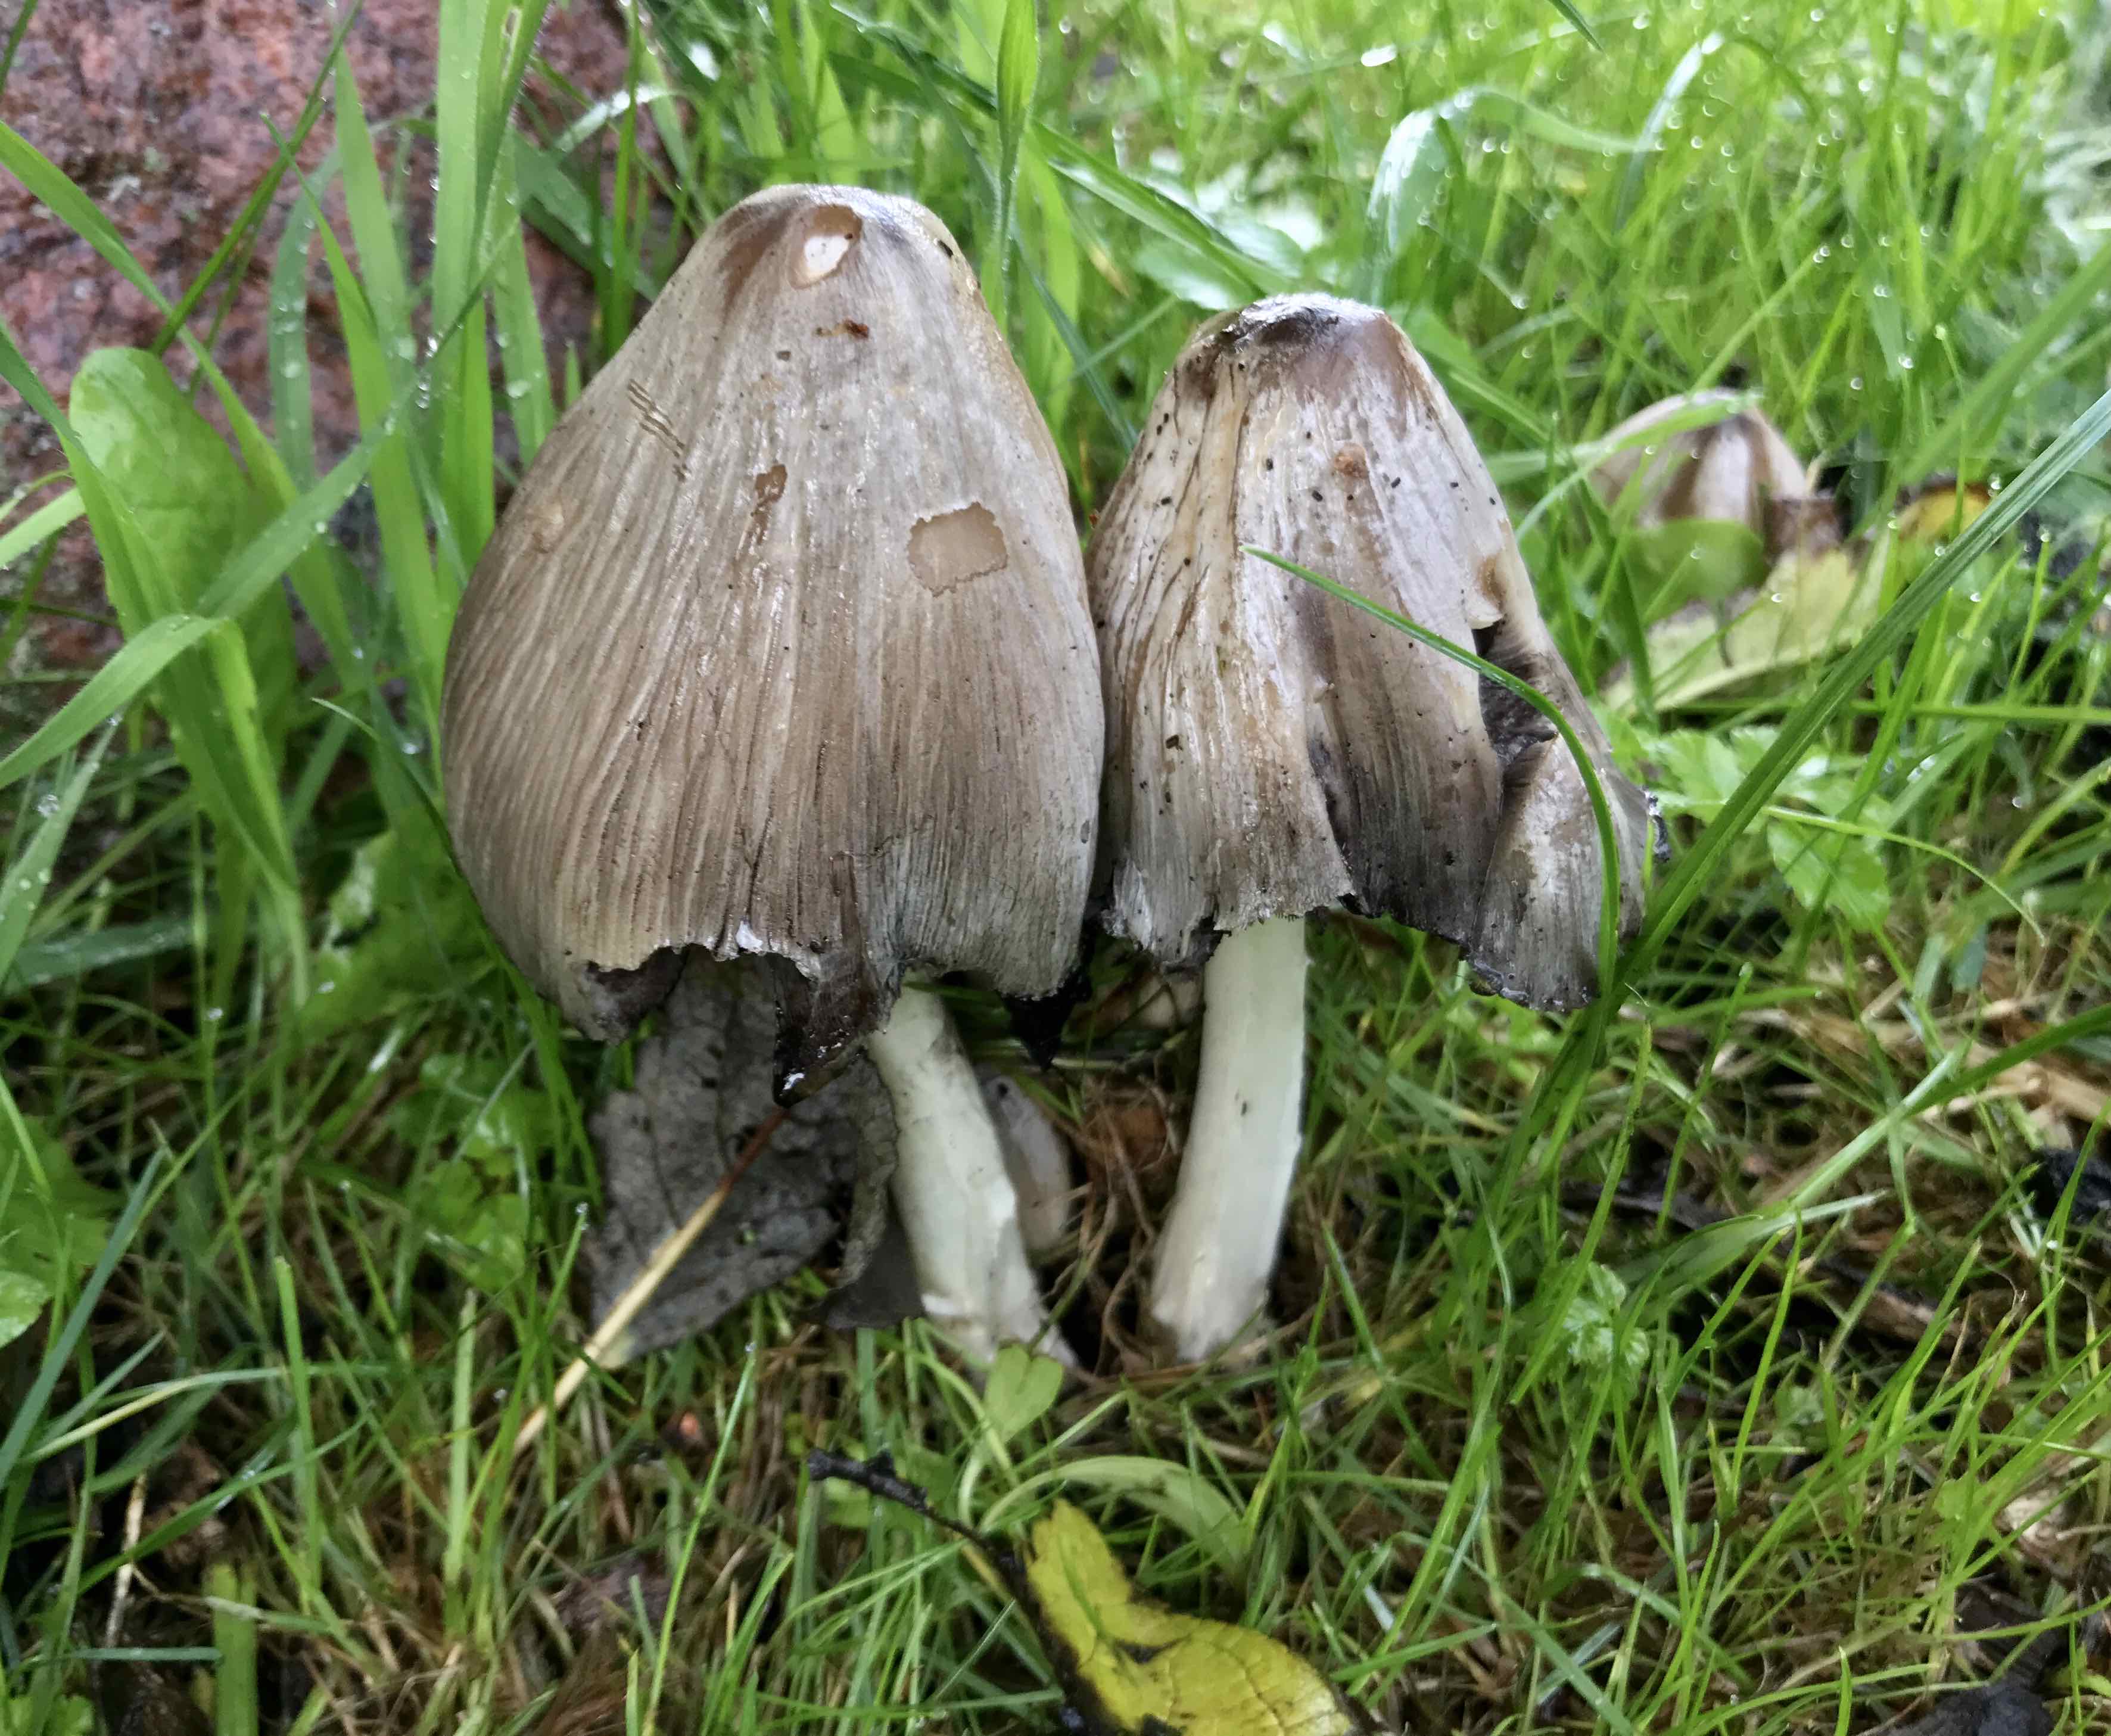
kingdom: Fungi
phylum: Basidiomycota
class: Agaricomycetes
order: Agaricales
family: Psathyrellaceae
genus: Coprinopsis
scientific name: Coprinopsis atramentaria
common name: almindelig blækhat
